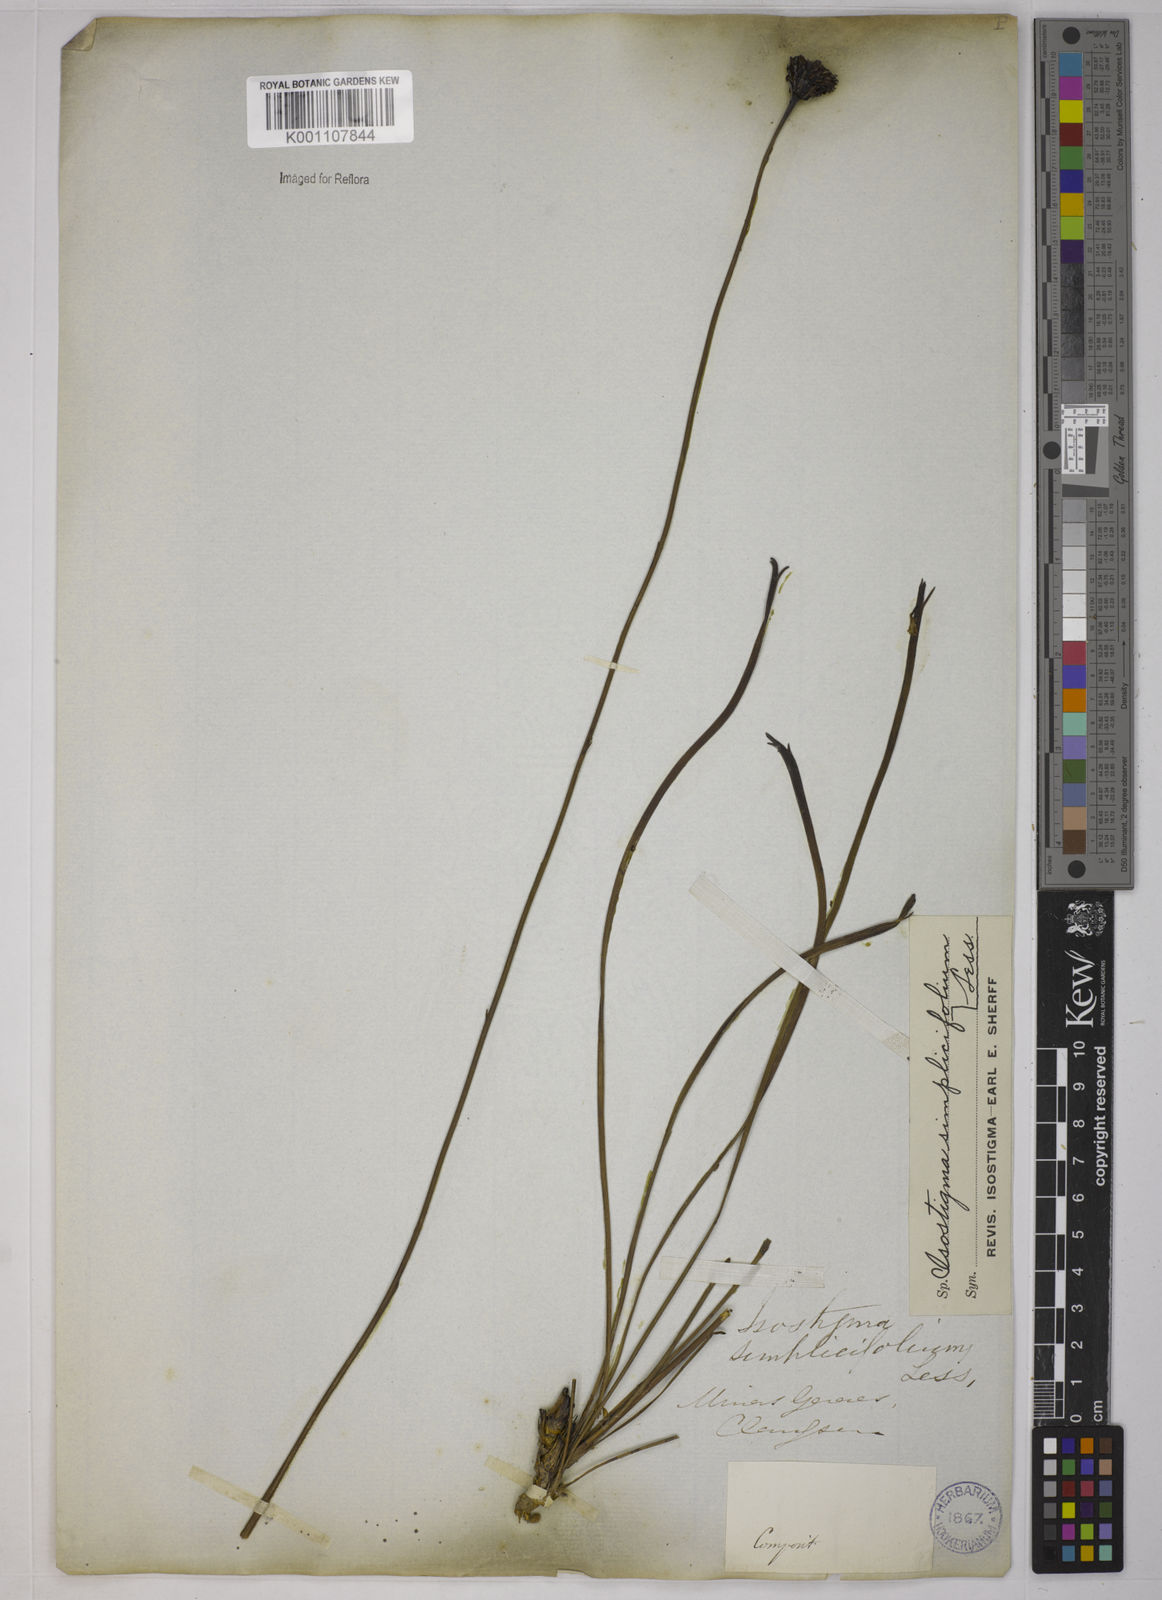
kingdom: Plantae
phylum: Tracheophyta
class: Magnoliopsida
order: Asterales
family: Asteraceae
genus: Isostigma
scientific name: Isostigma simplicifolium
